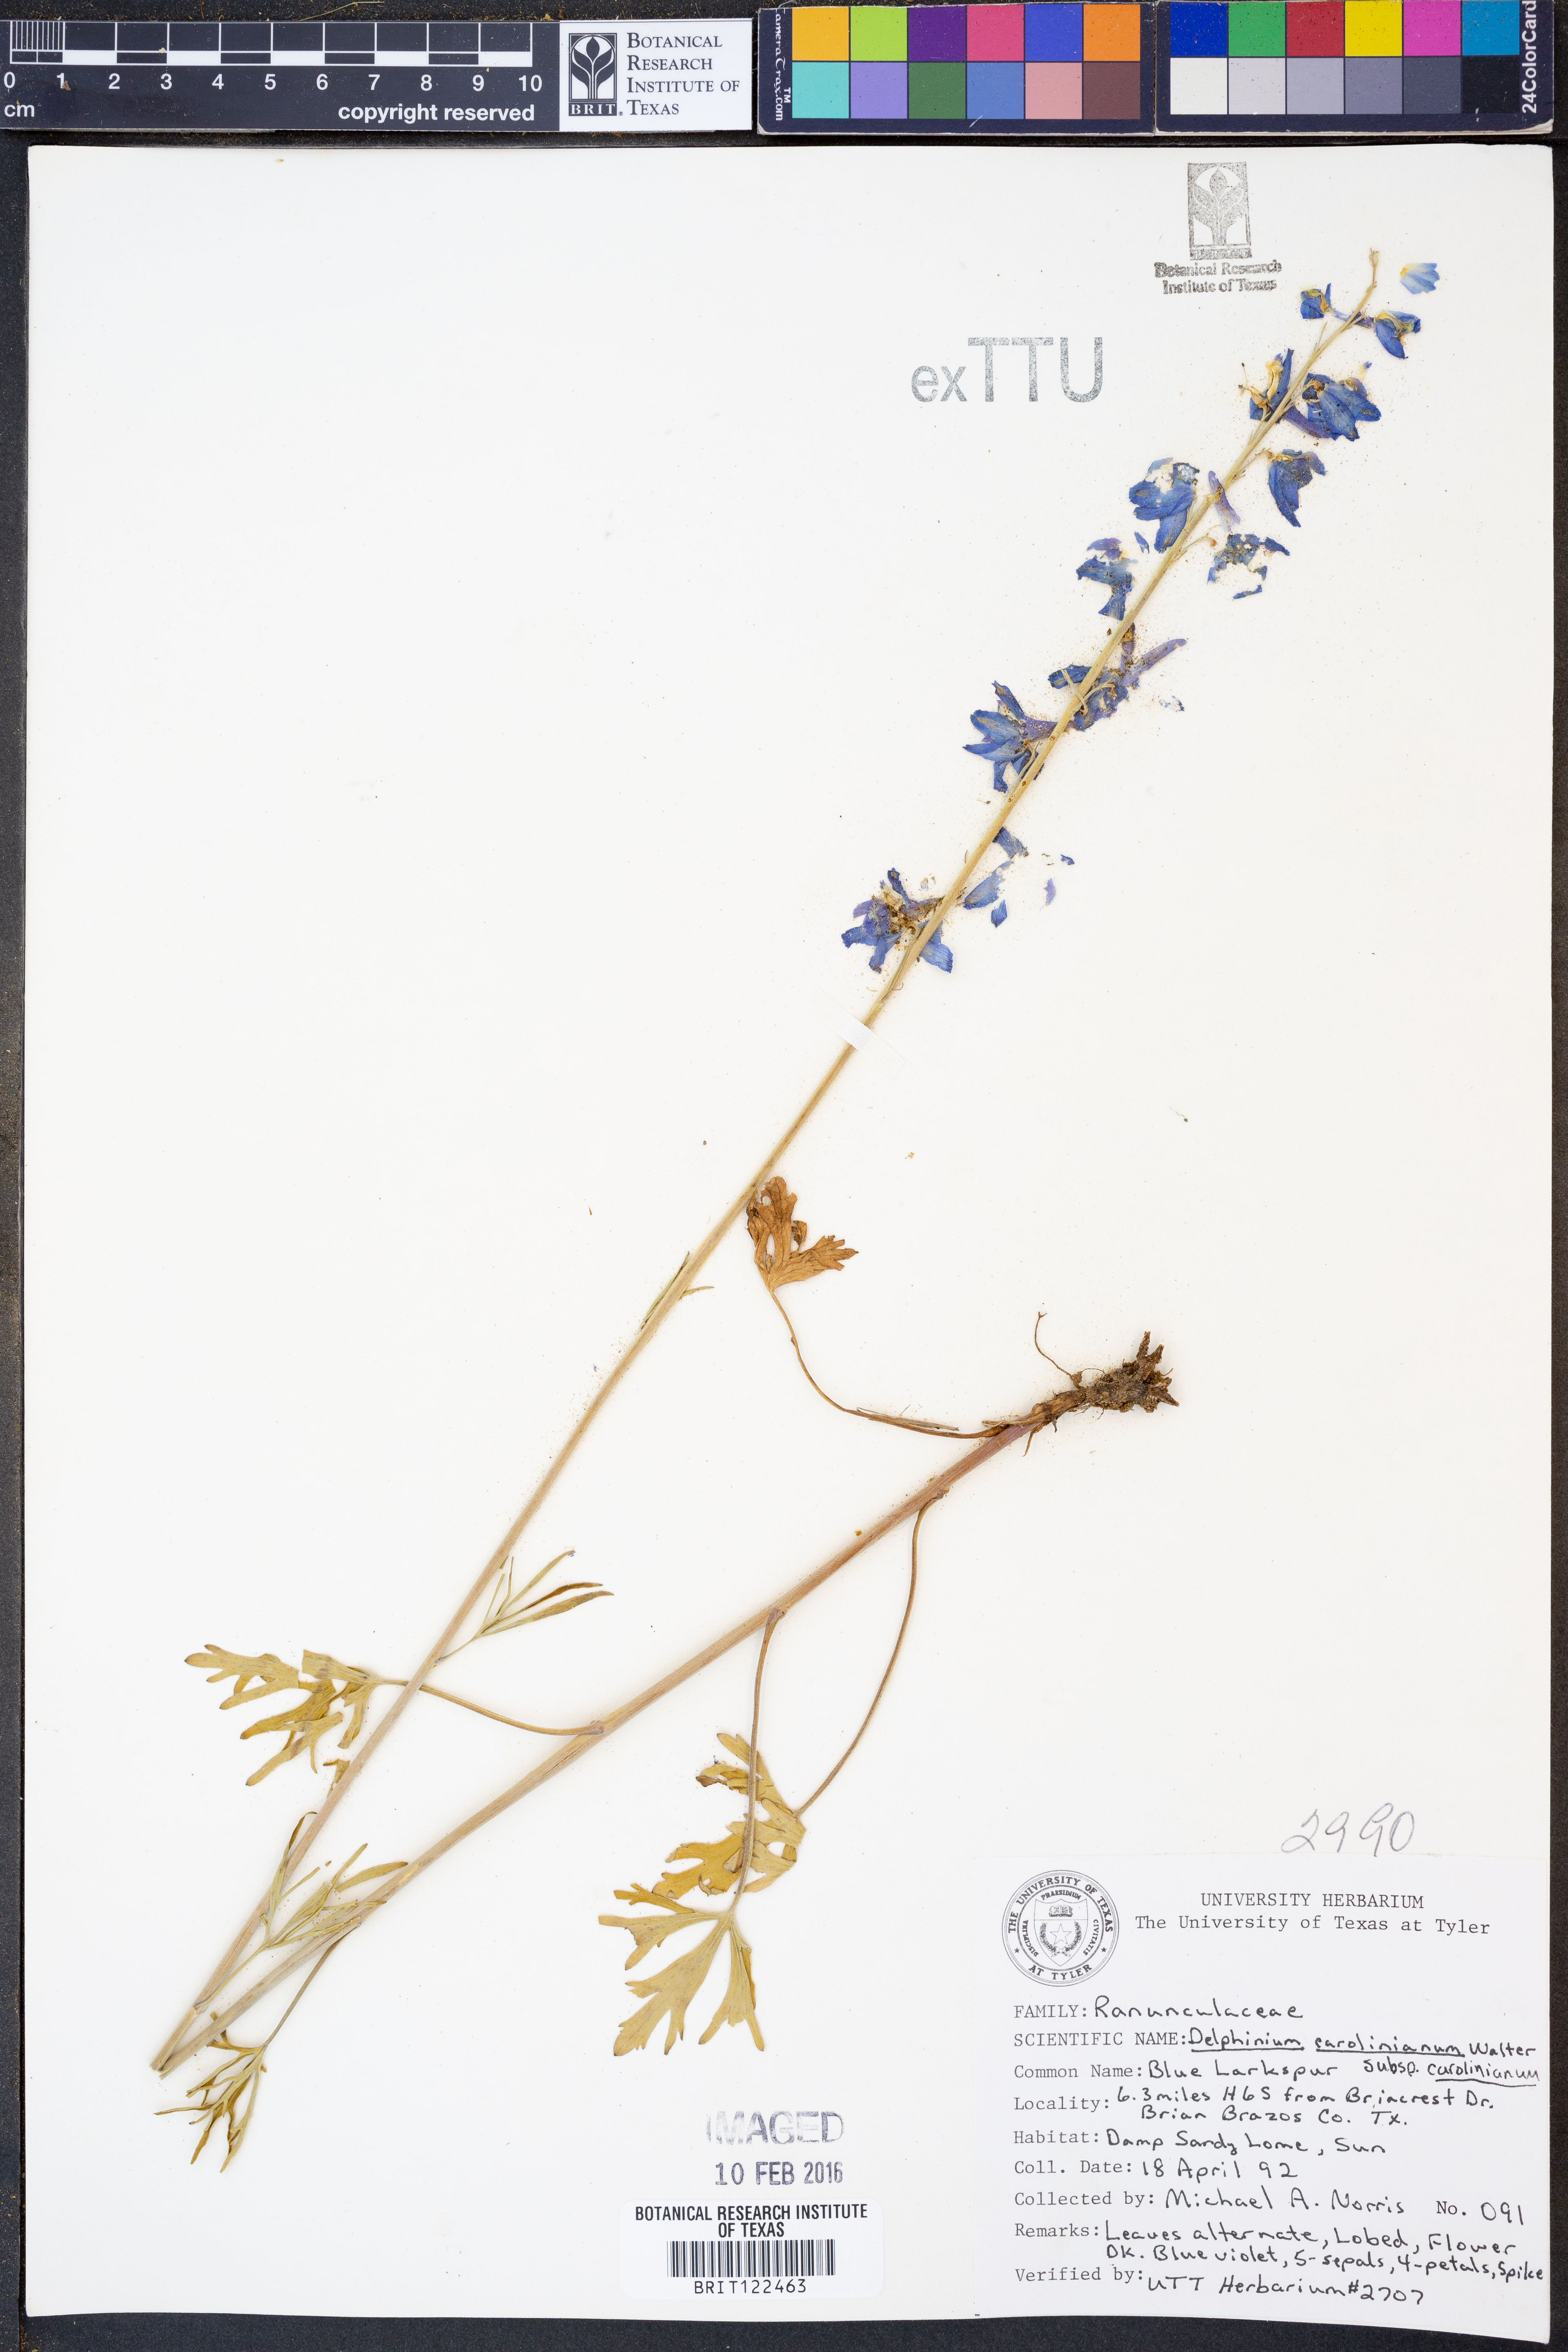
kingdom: Plantae
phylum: Tracheophyta
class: Magnoliopsida
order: Ranunculales
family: Ranunculaceae
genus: Delphinium
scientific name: Delphinium carolinianum
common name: Carolina larkspur
